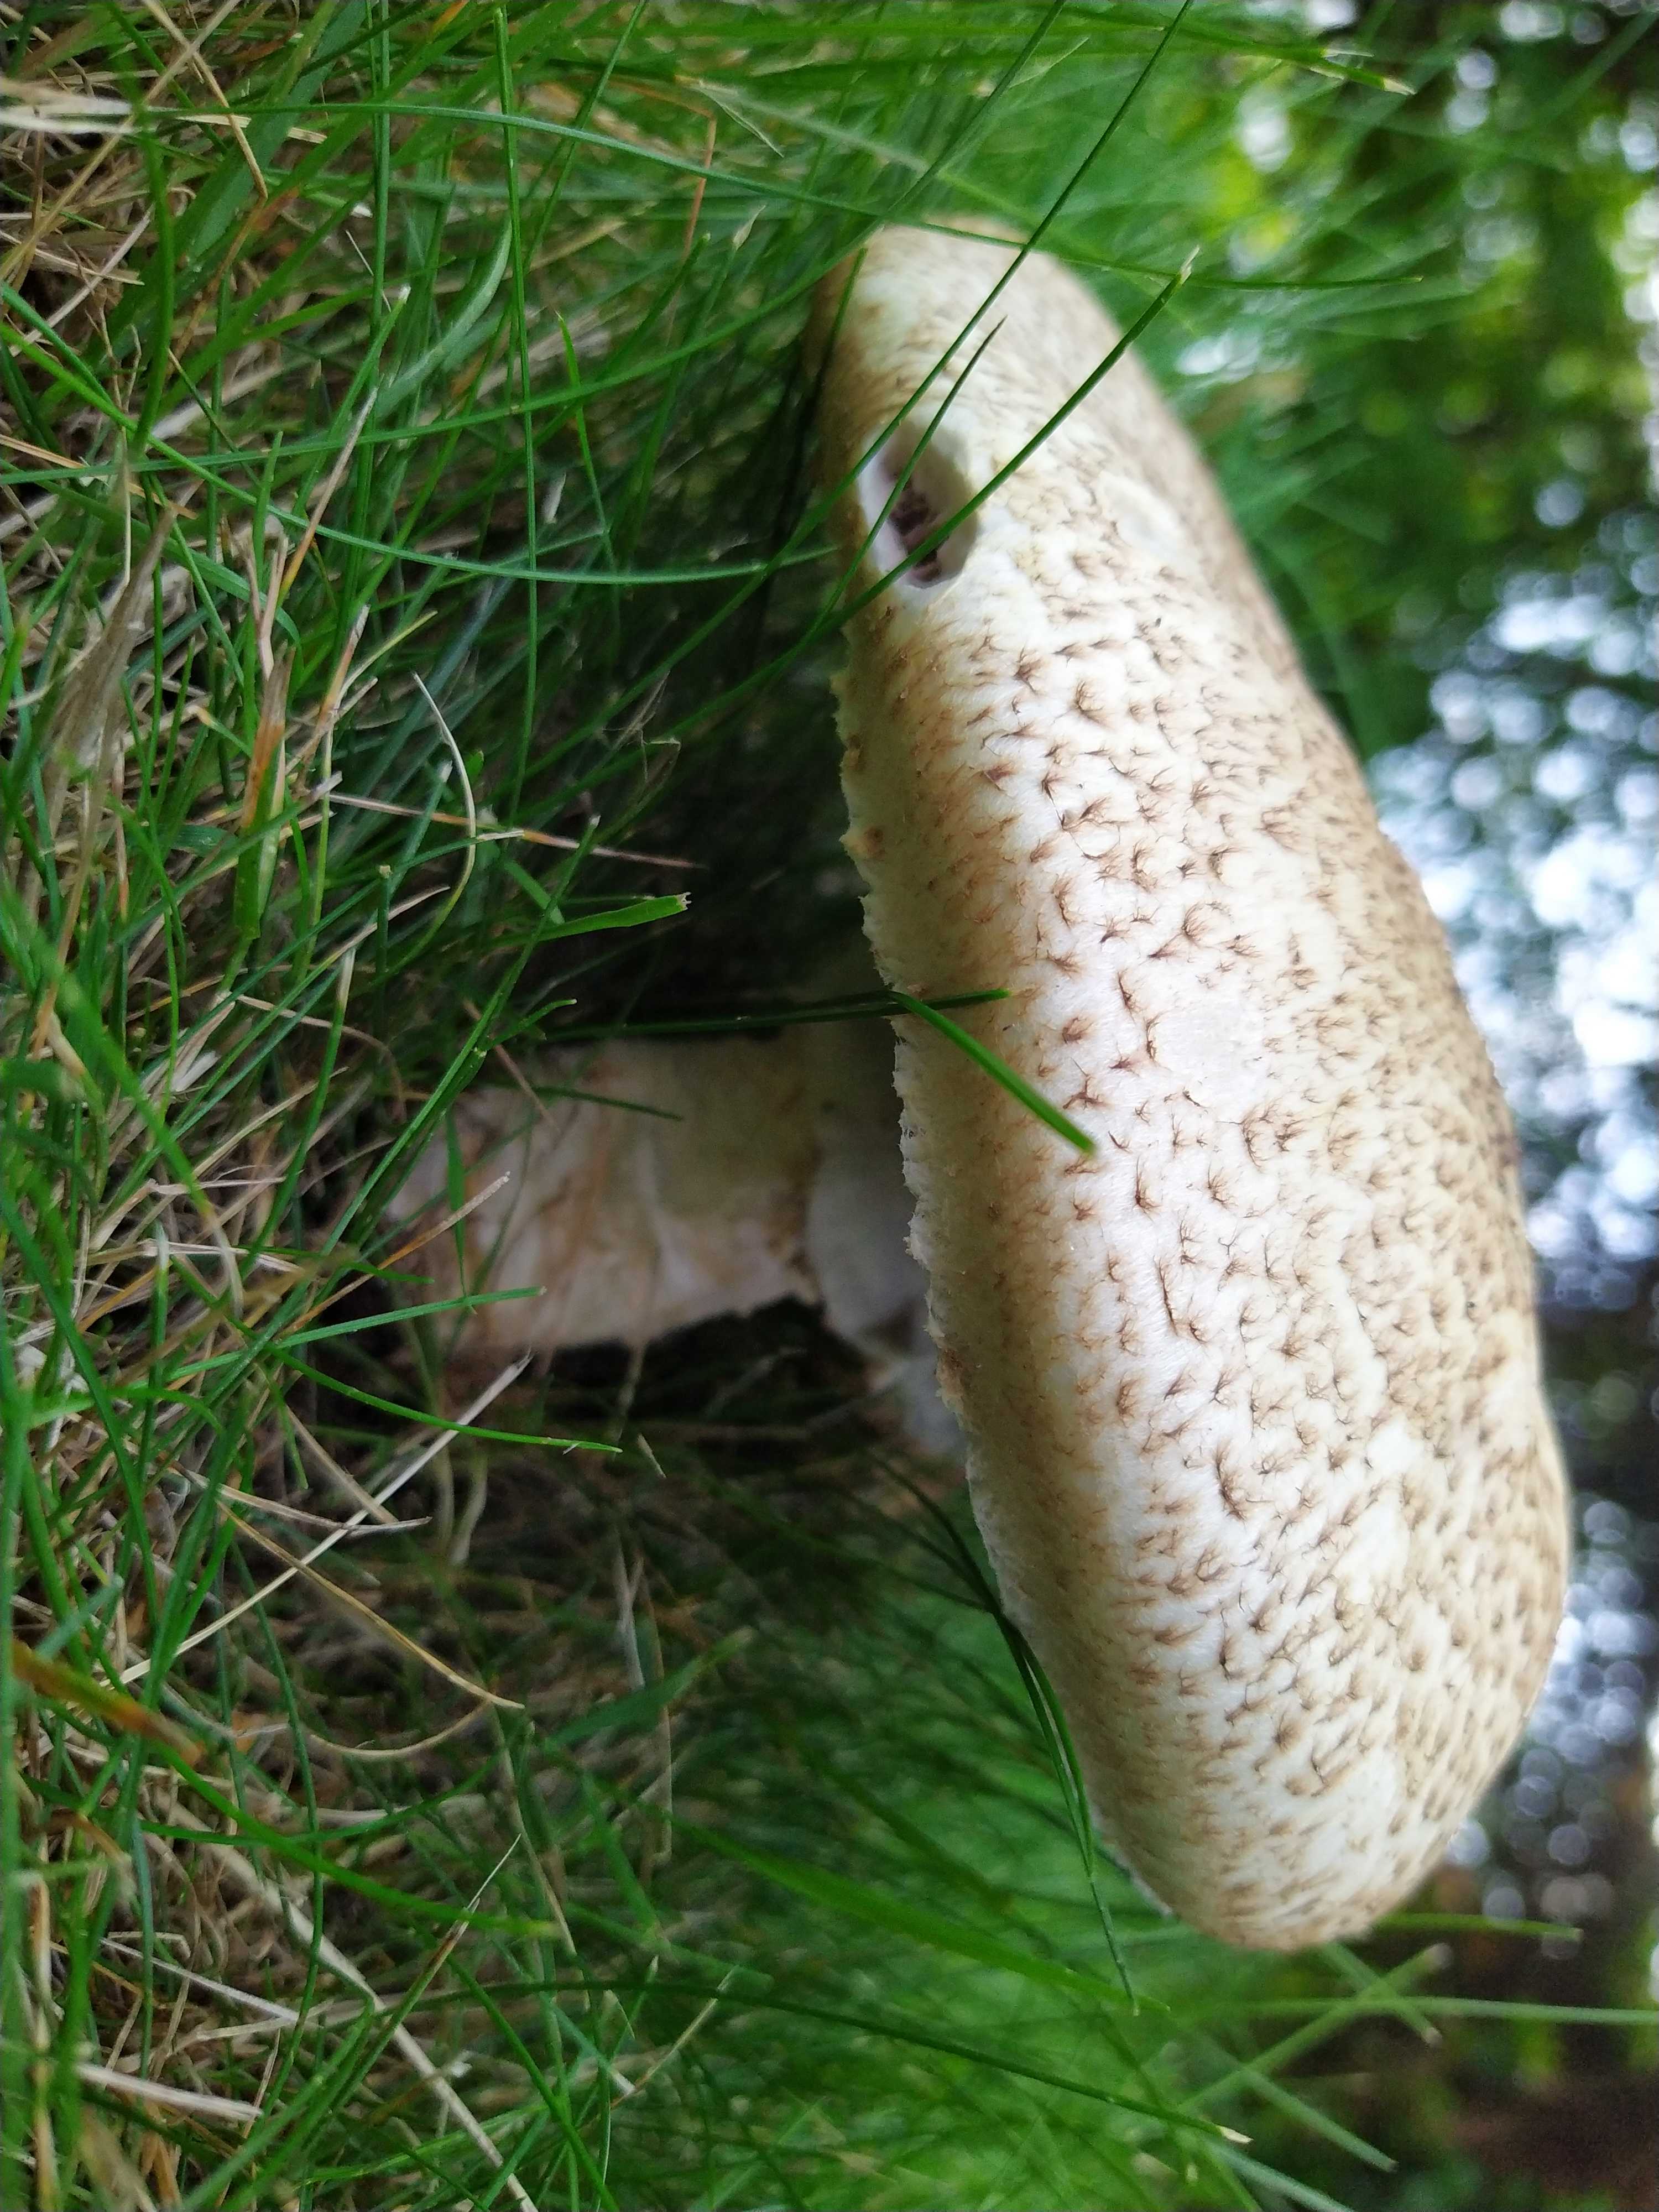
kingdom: Fungi
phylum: Basidiomycota
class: Agaricomycetes
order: Agaricales
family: Agaricaceae
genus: Agaricus
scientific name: Agaricus augustus
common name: prægtig champignon
